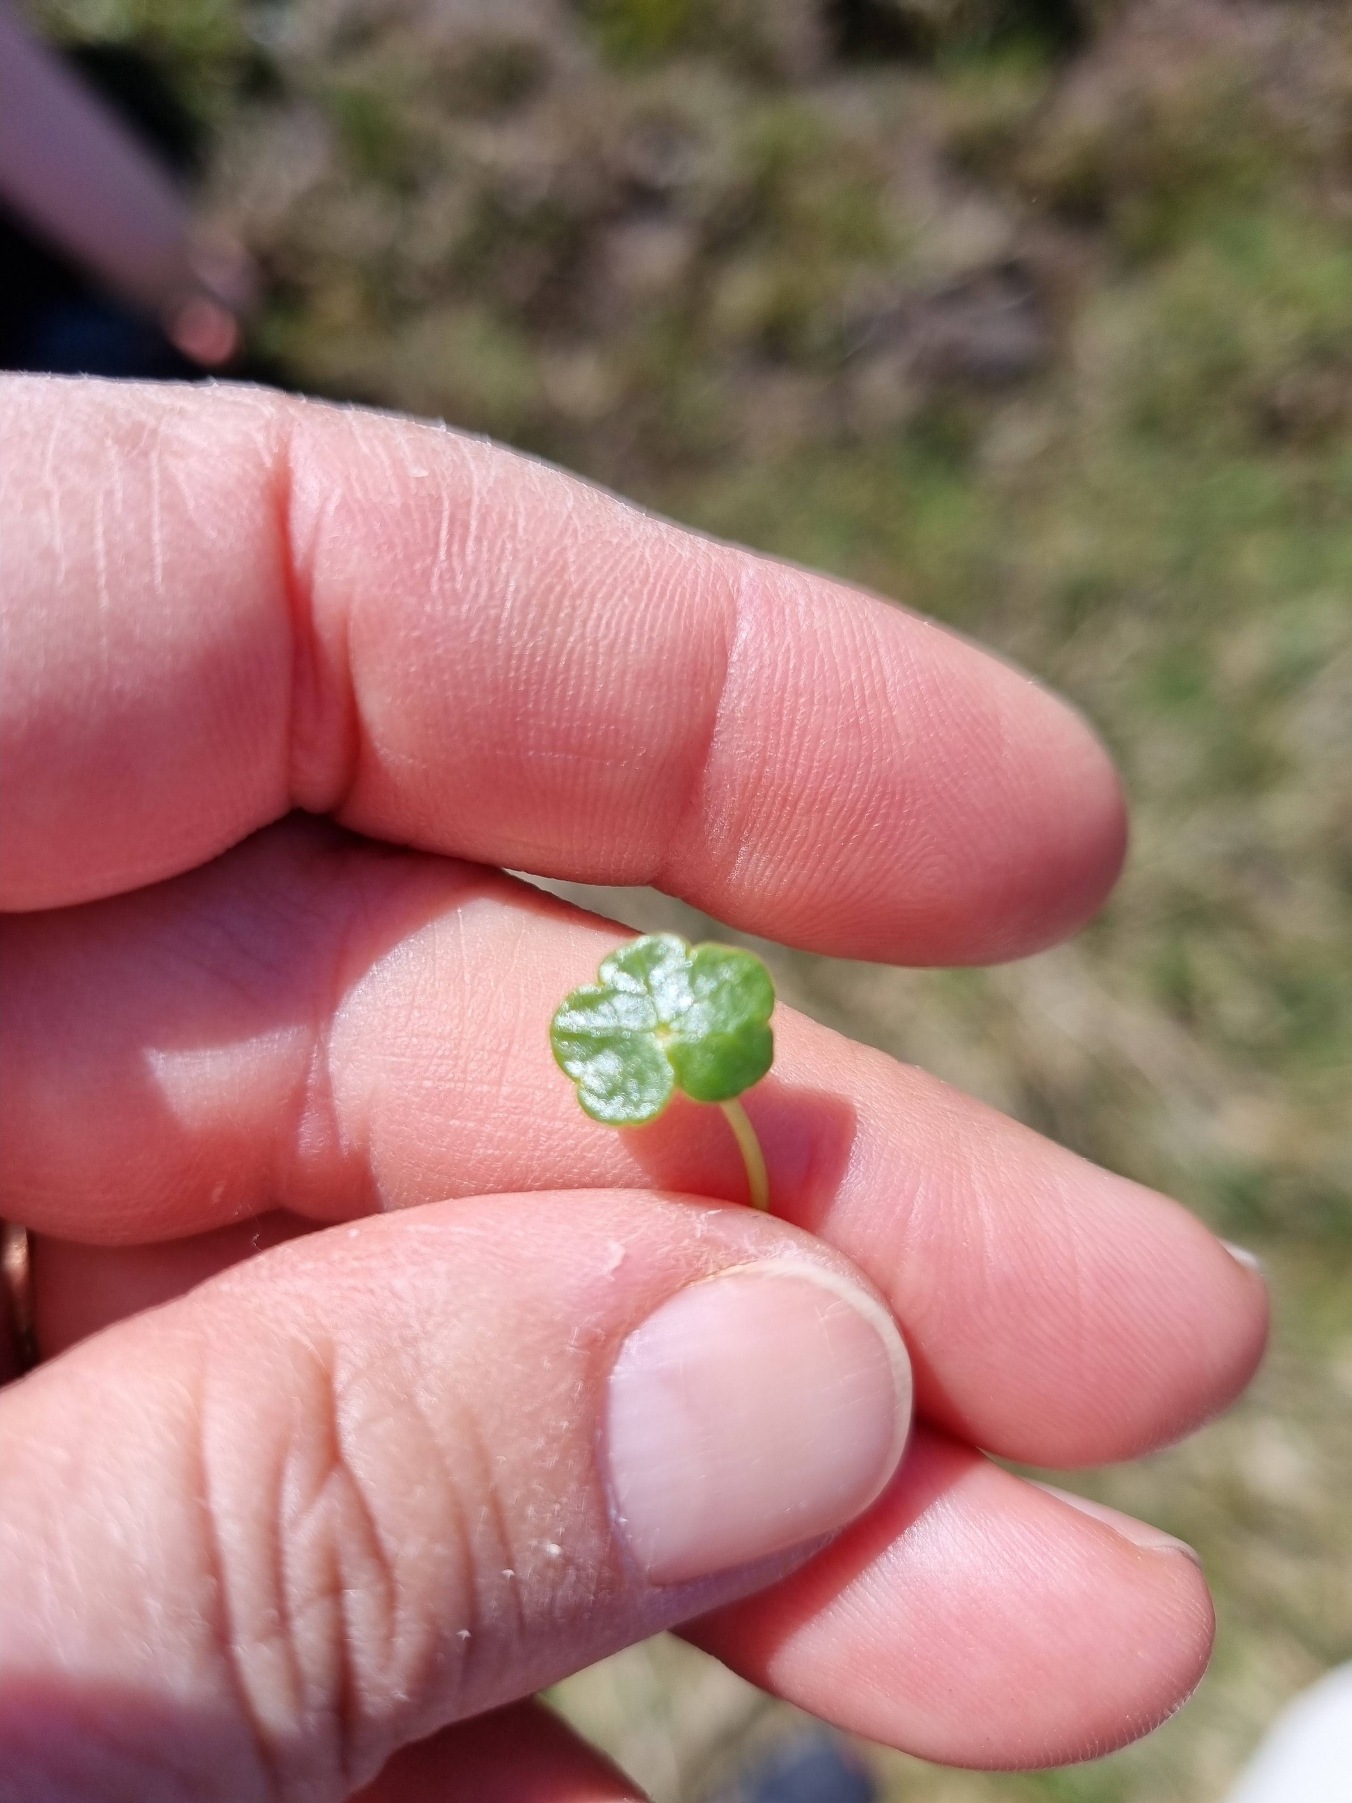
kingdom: Plantae
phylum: Tracheophyta
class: Magnoliopsida
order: Apiales
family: Araliaceae
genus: Hydrocotyle
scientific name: Hydrocotyle vulgaris
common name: Vandnavle
